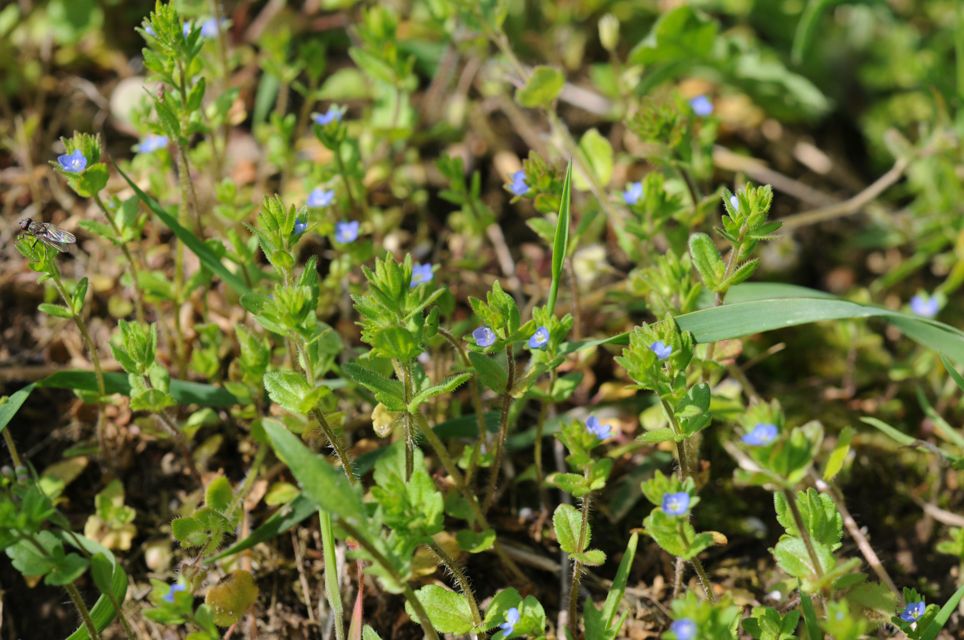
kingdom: Plantae
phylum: Tracheophyta
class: Magnoliopsida
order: Lamiales
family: Plantaginaceae
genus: Veronica
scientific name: Veronica arvensis
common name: Corn speedwell
